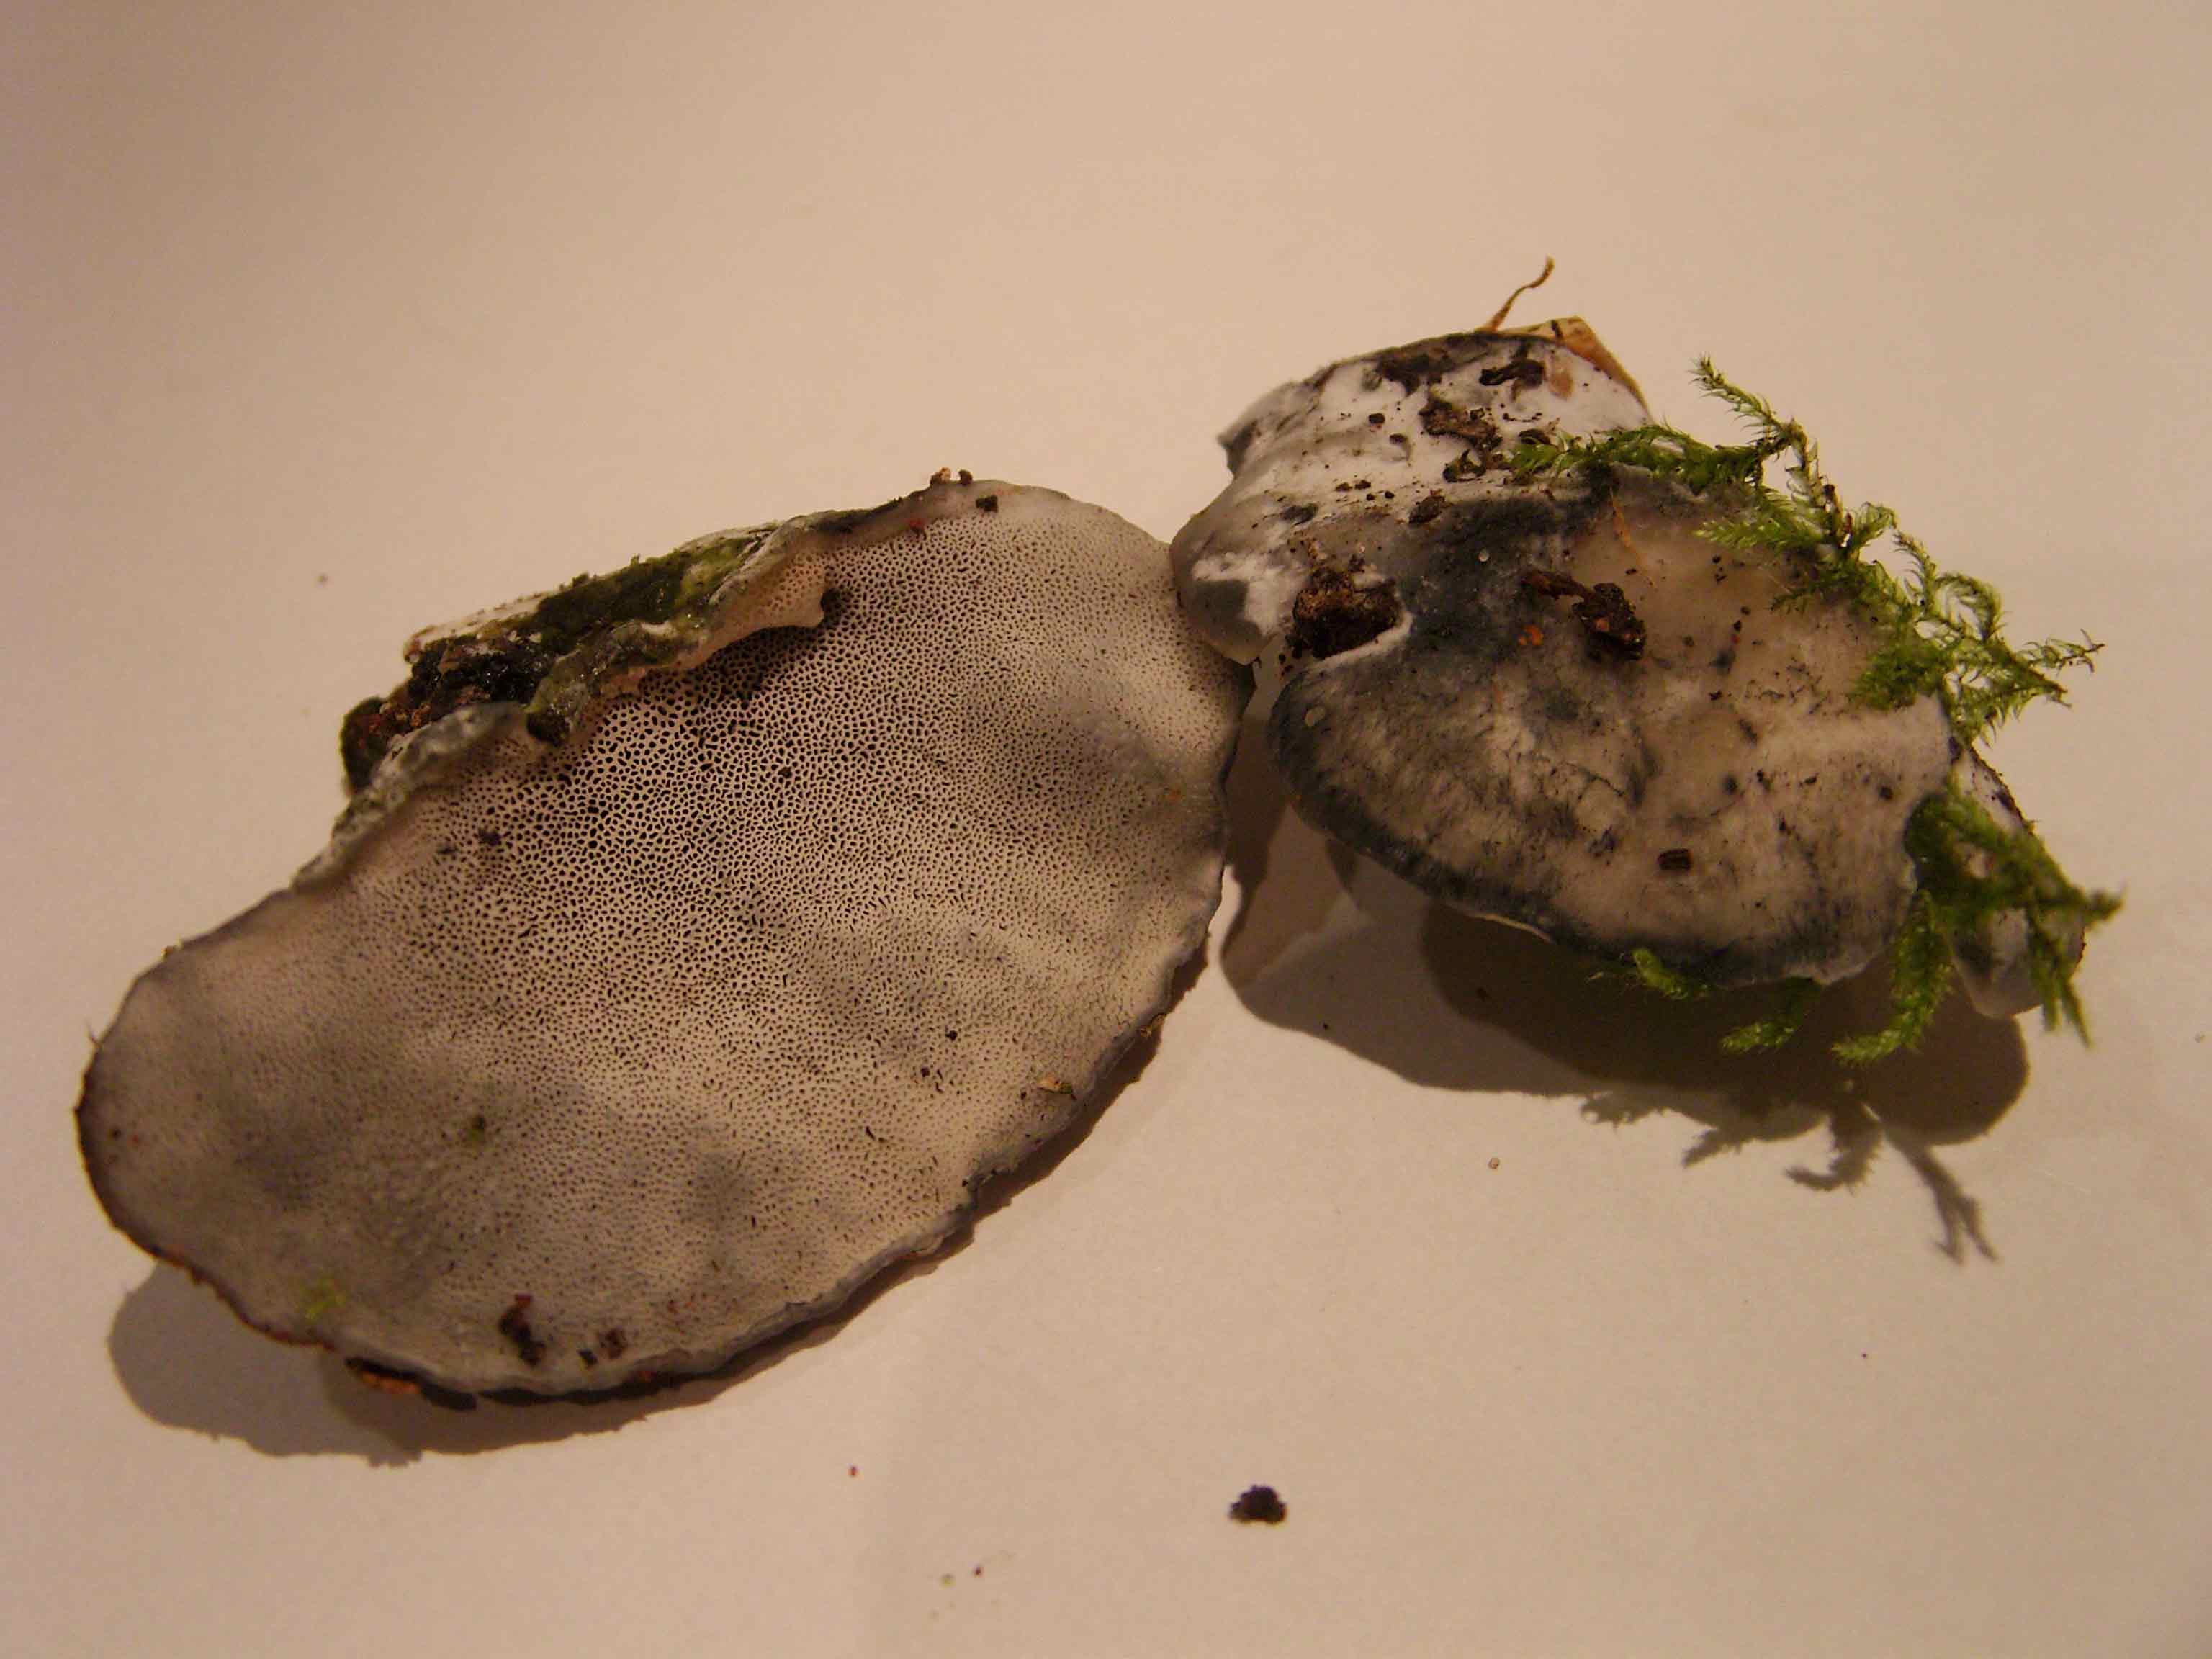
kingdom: Fungi
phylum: Basidiomycota
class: Agaricomycetes
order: Polyporales
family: Polyporaceae
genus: Cyanosporus
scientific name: Cyanosporus caesius
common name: blålig kødporesvamp
